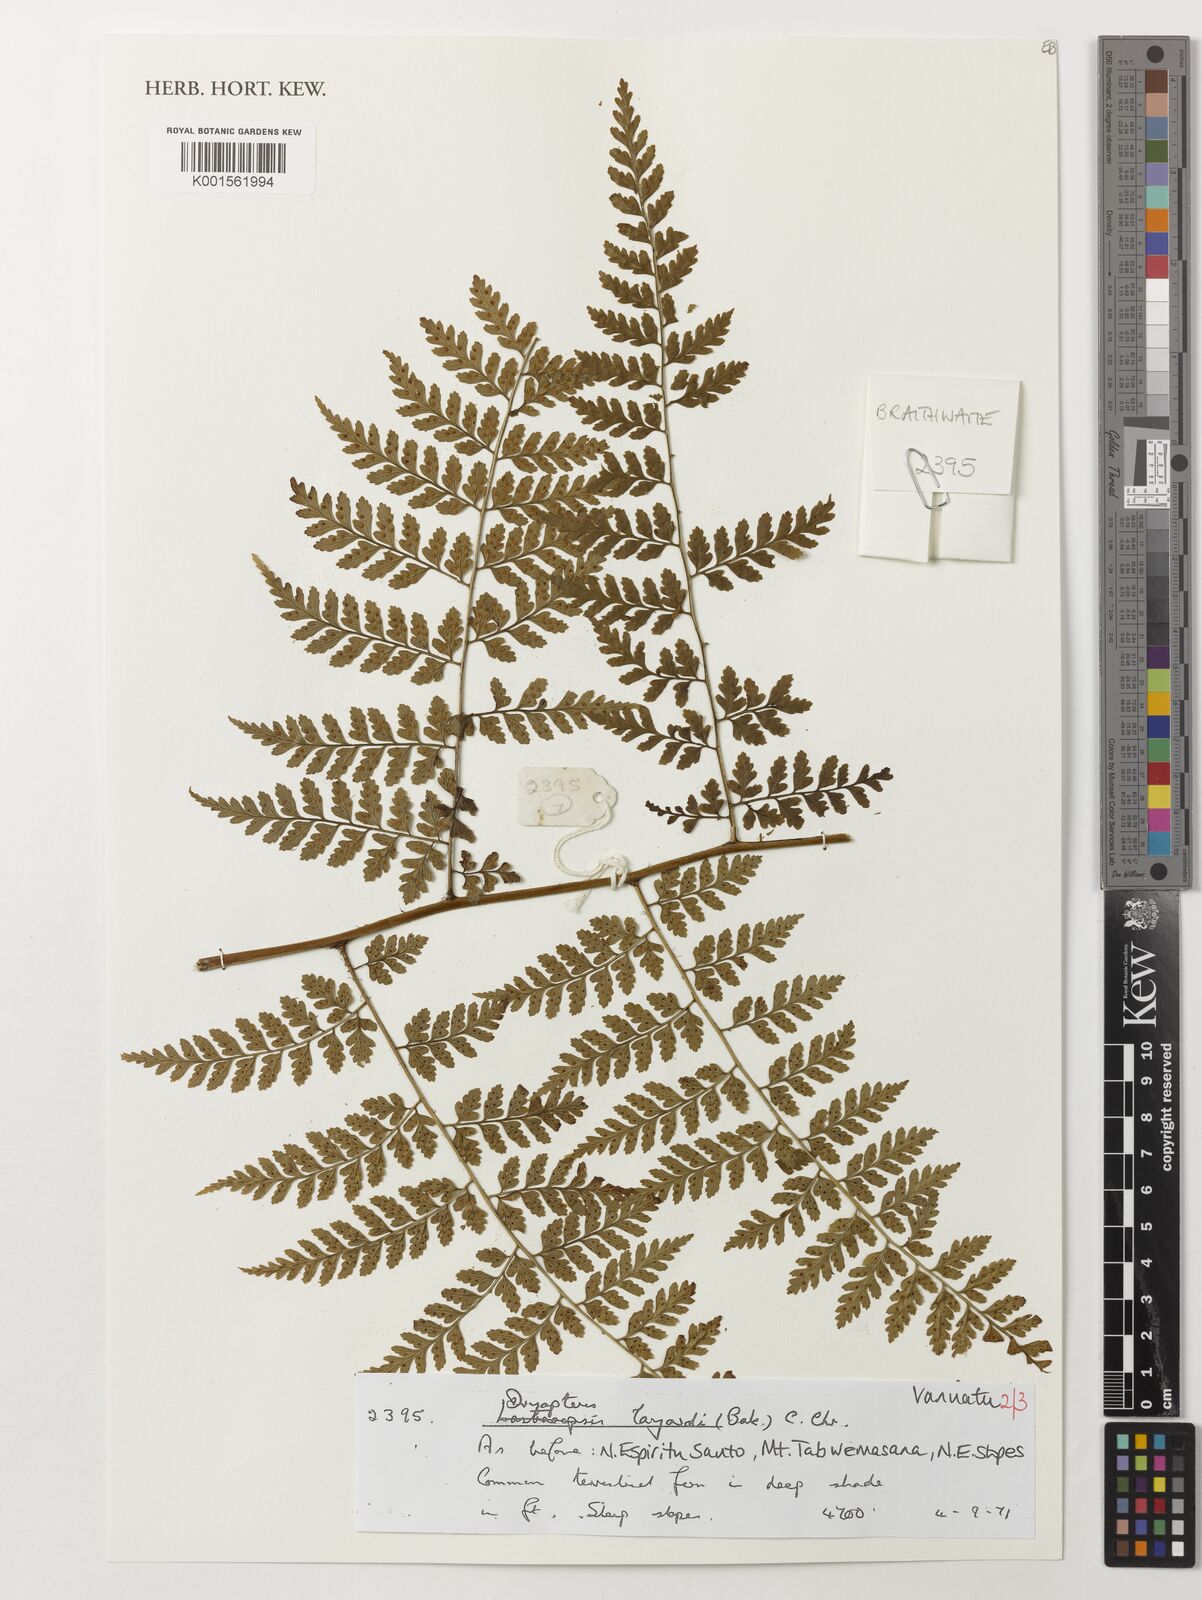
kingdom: Plantae
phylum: Tracheophyta
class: Polypodiopsida
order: Polypodiales
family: Dryopteridaceae
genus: Dryopteris
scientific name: Dryopteris aneitensis
